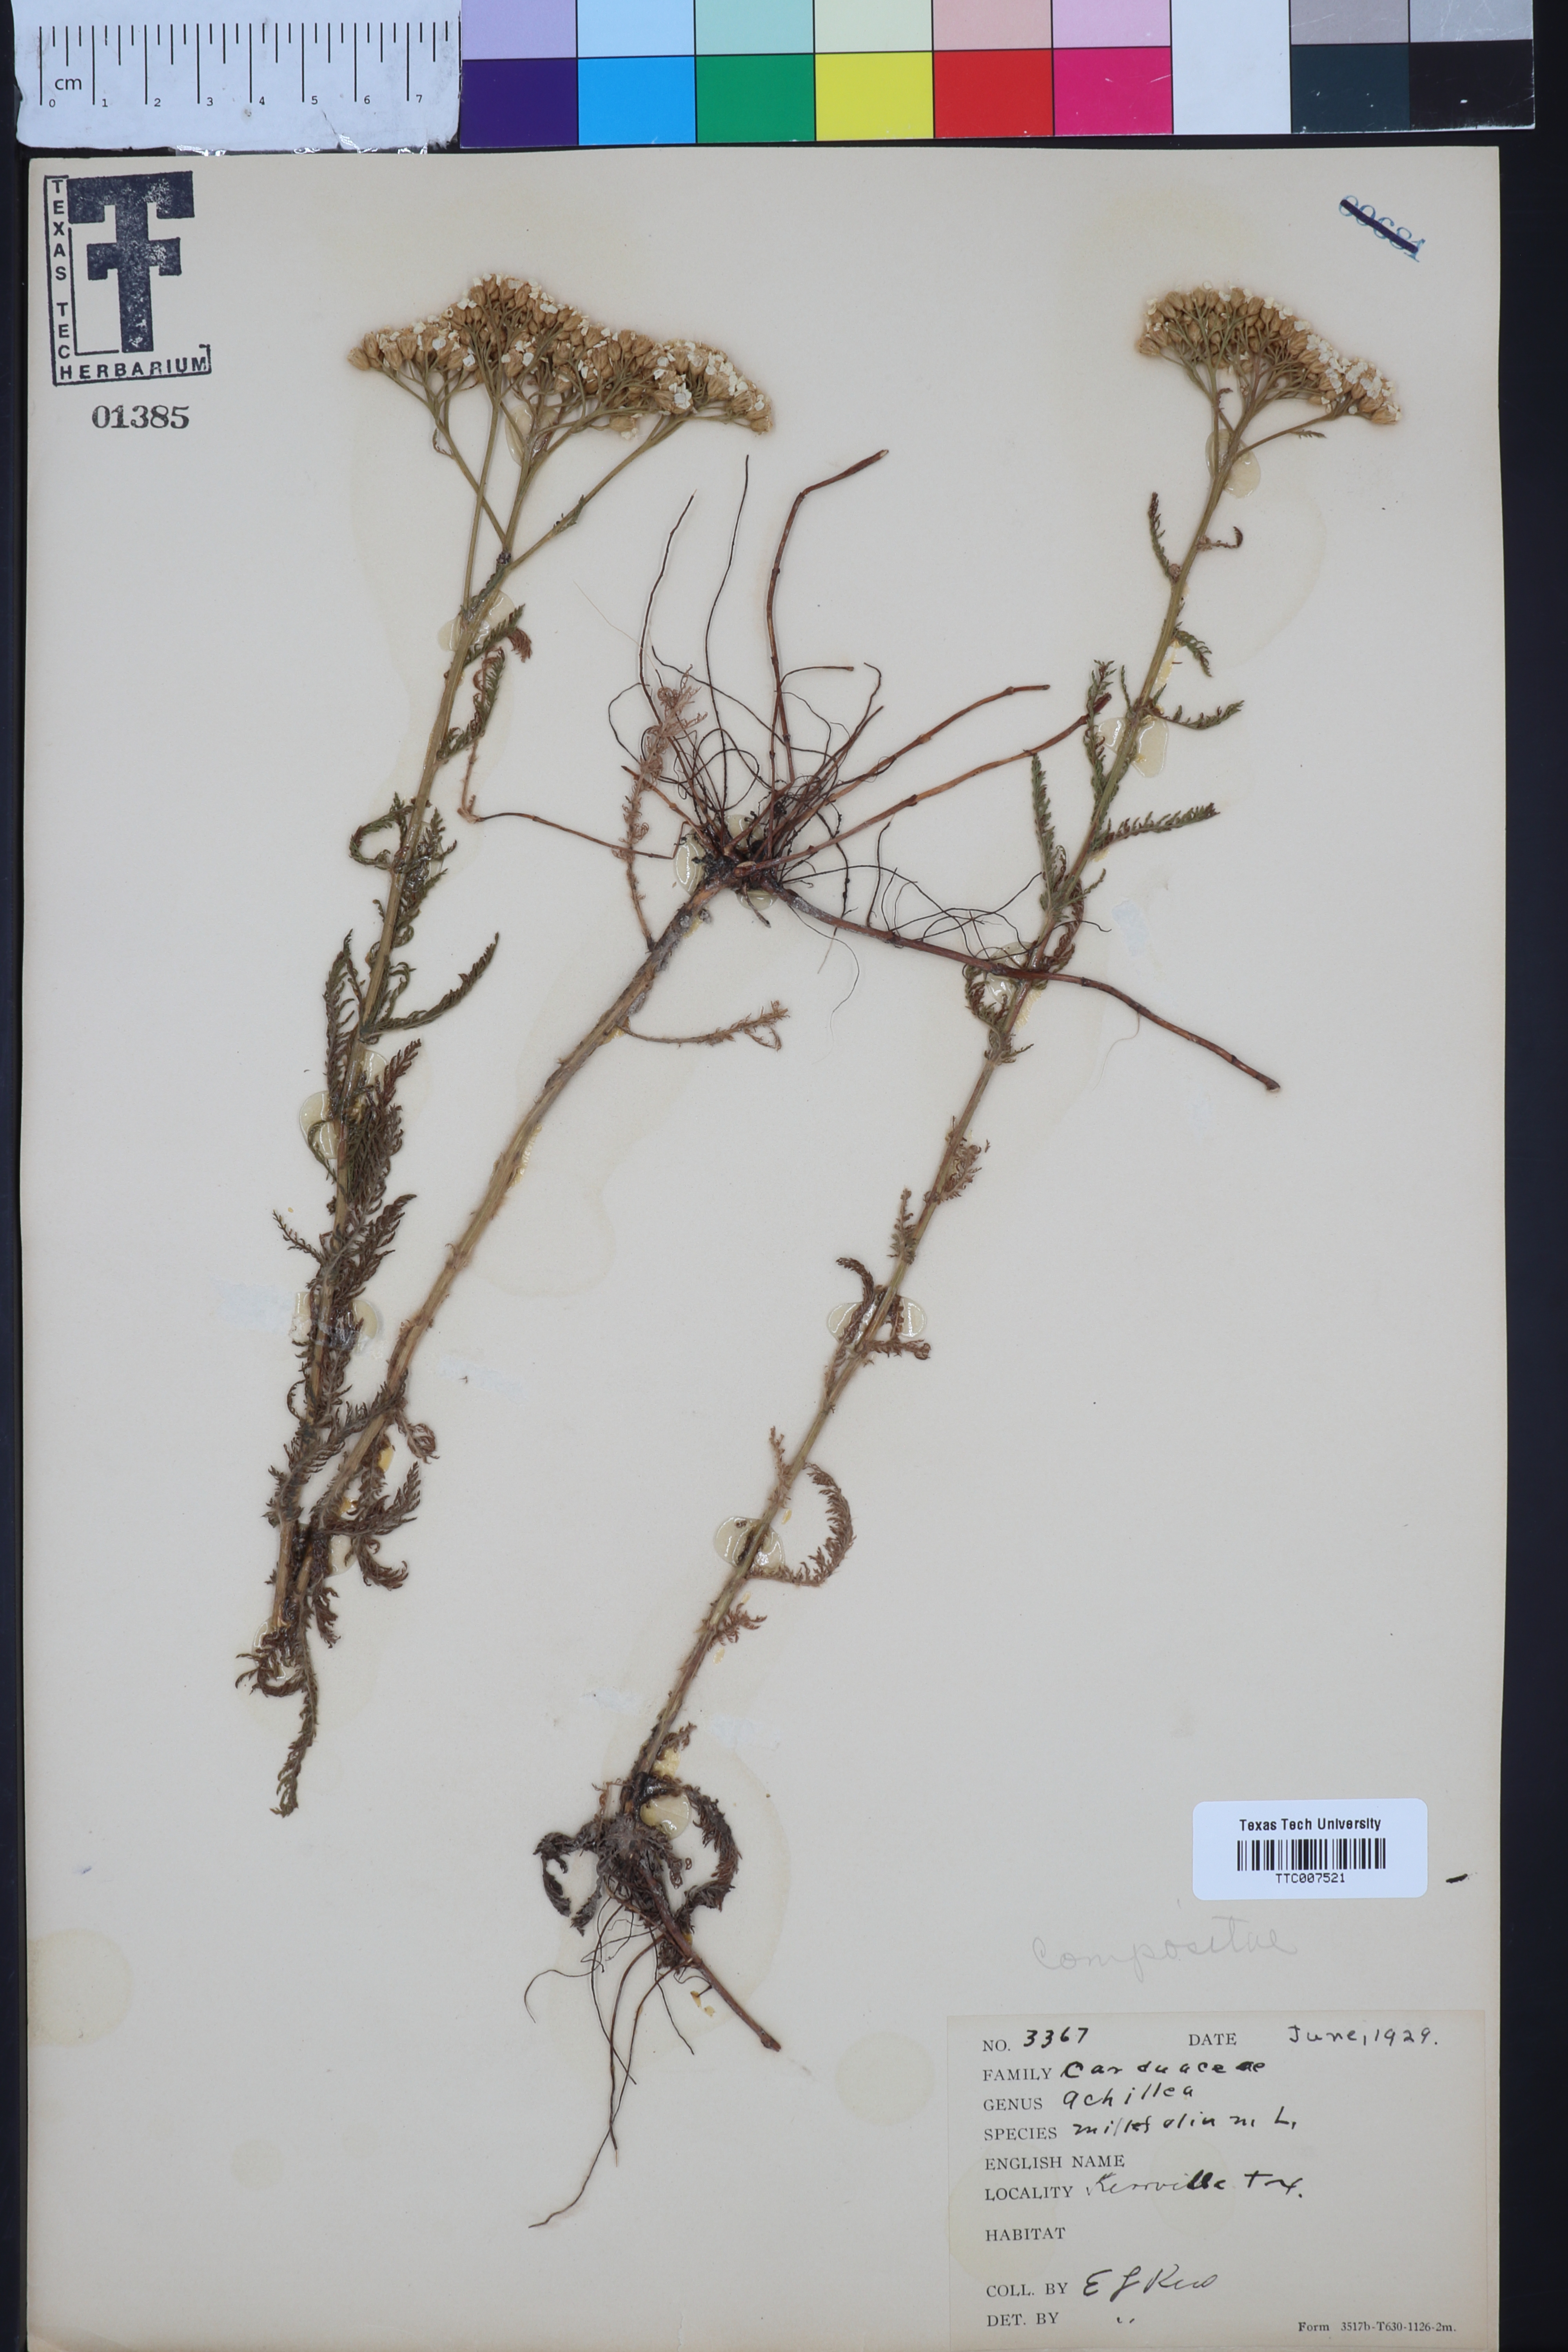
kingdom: Plantae
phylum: Tracheophyta
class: Magnoliopsida
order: Asterales
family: Asteraceae
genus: Achillea
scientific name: Achillea millefolium
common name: Yarrow
